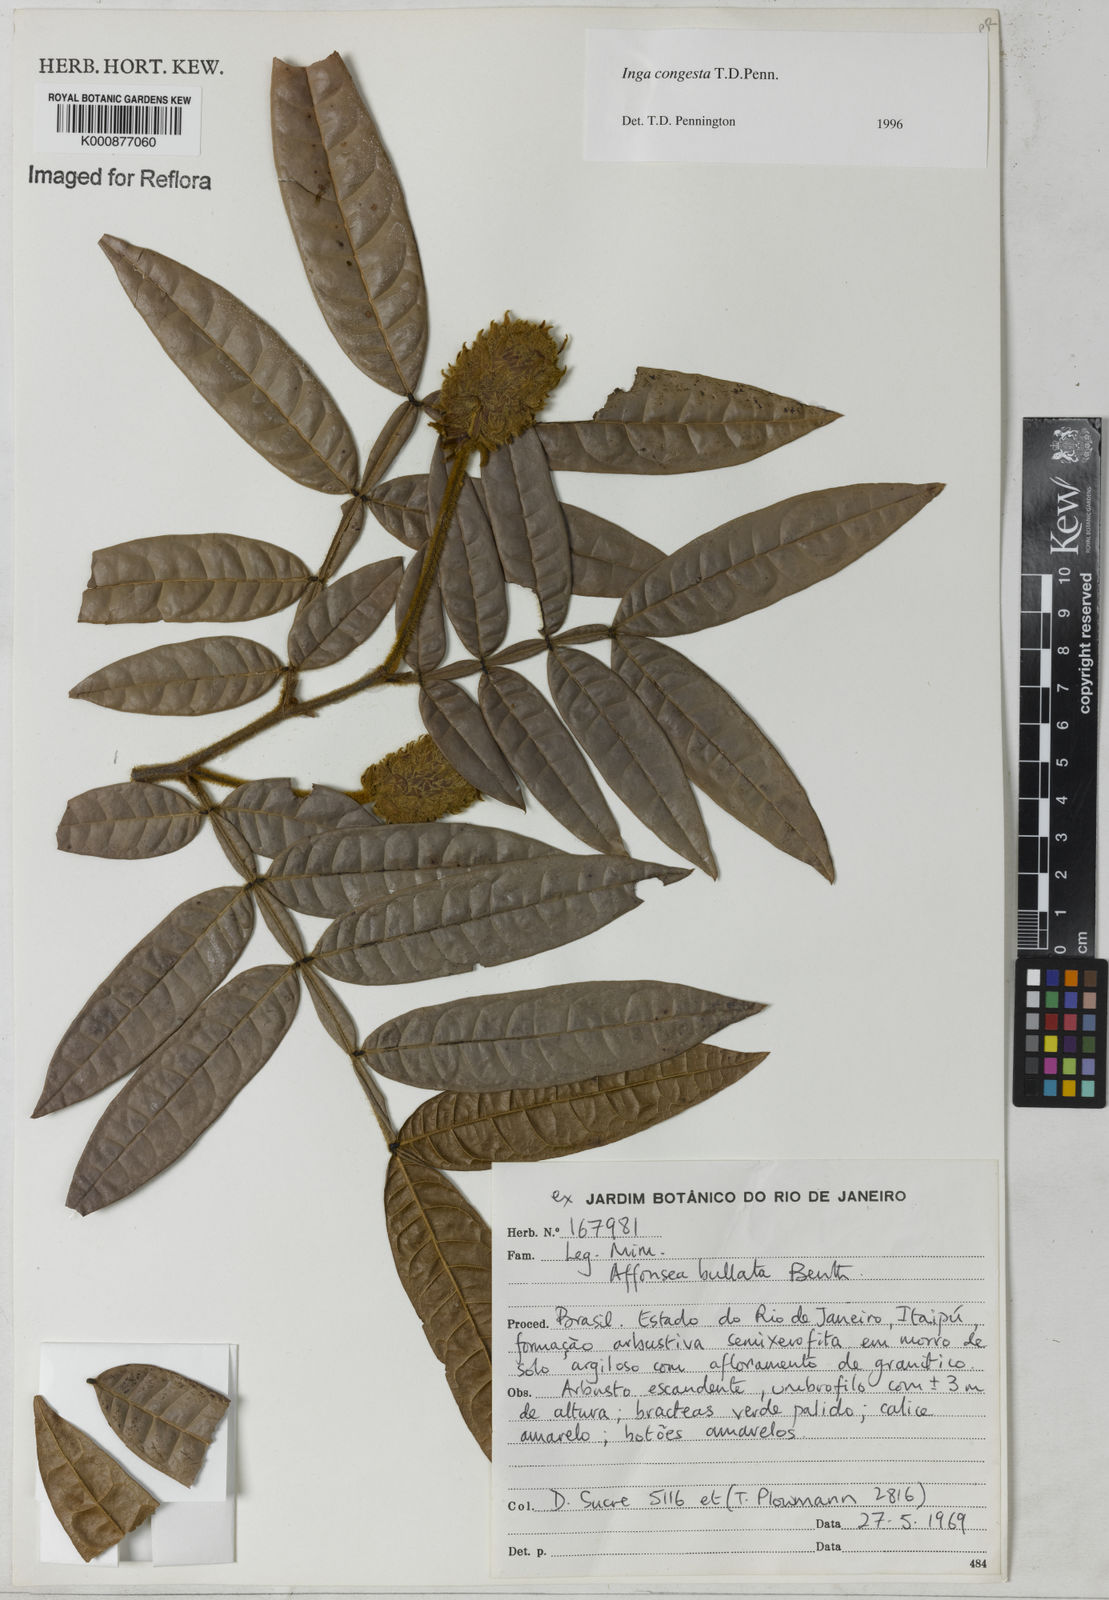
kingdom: Plantae
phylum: Tracheophyta
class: Magnoliopsida
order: Fabales
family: Fabaceae
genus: Inga
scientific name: Inga congesta
